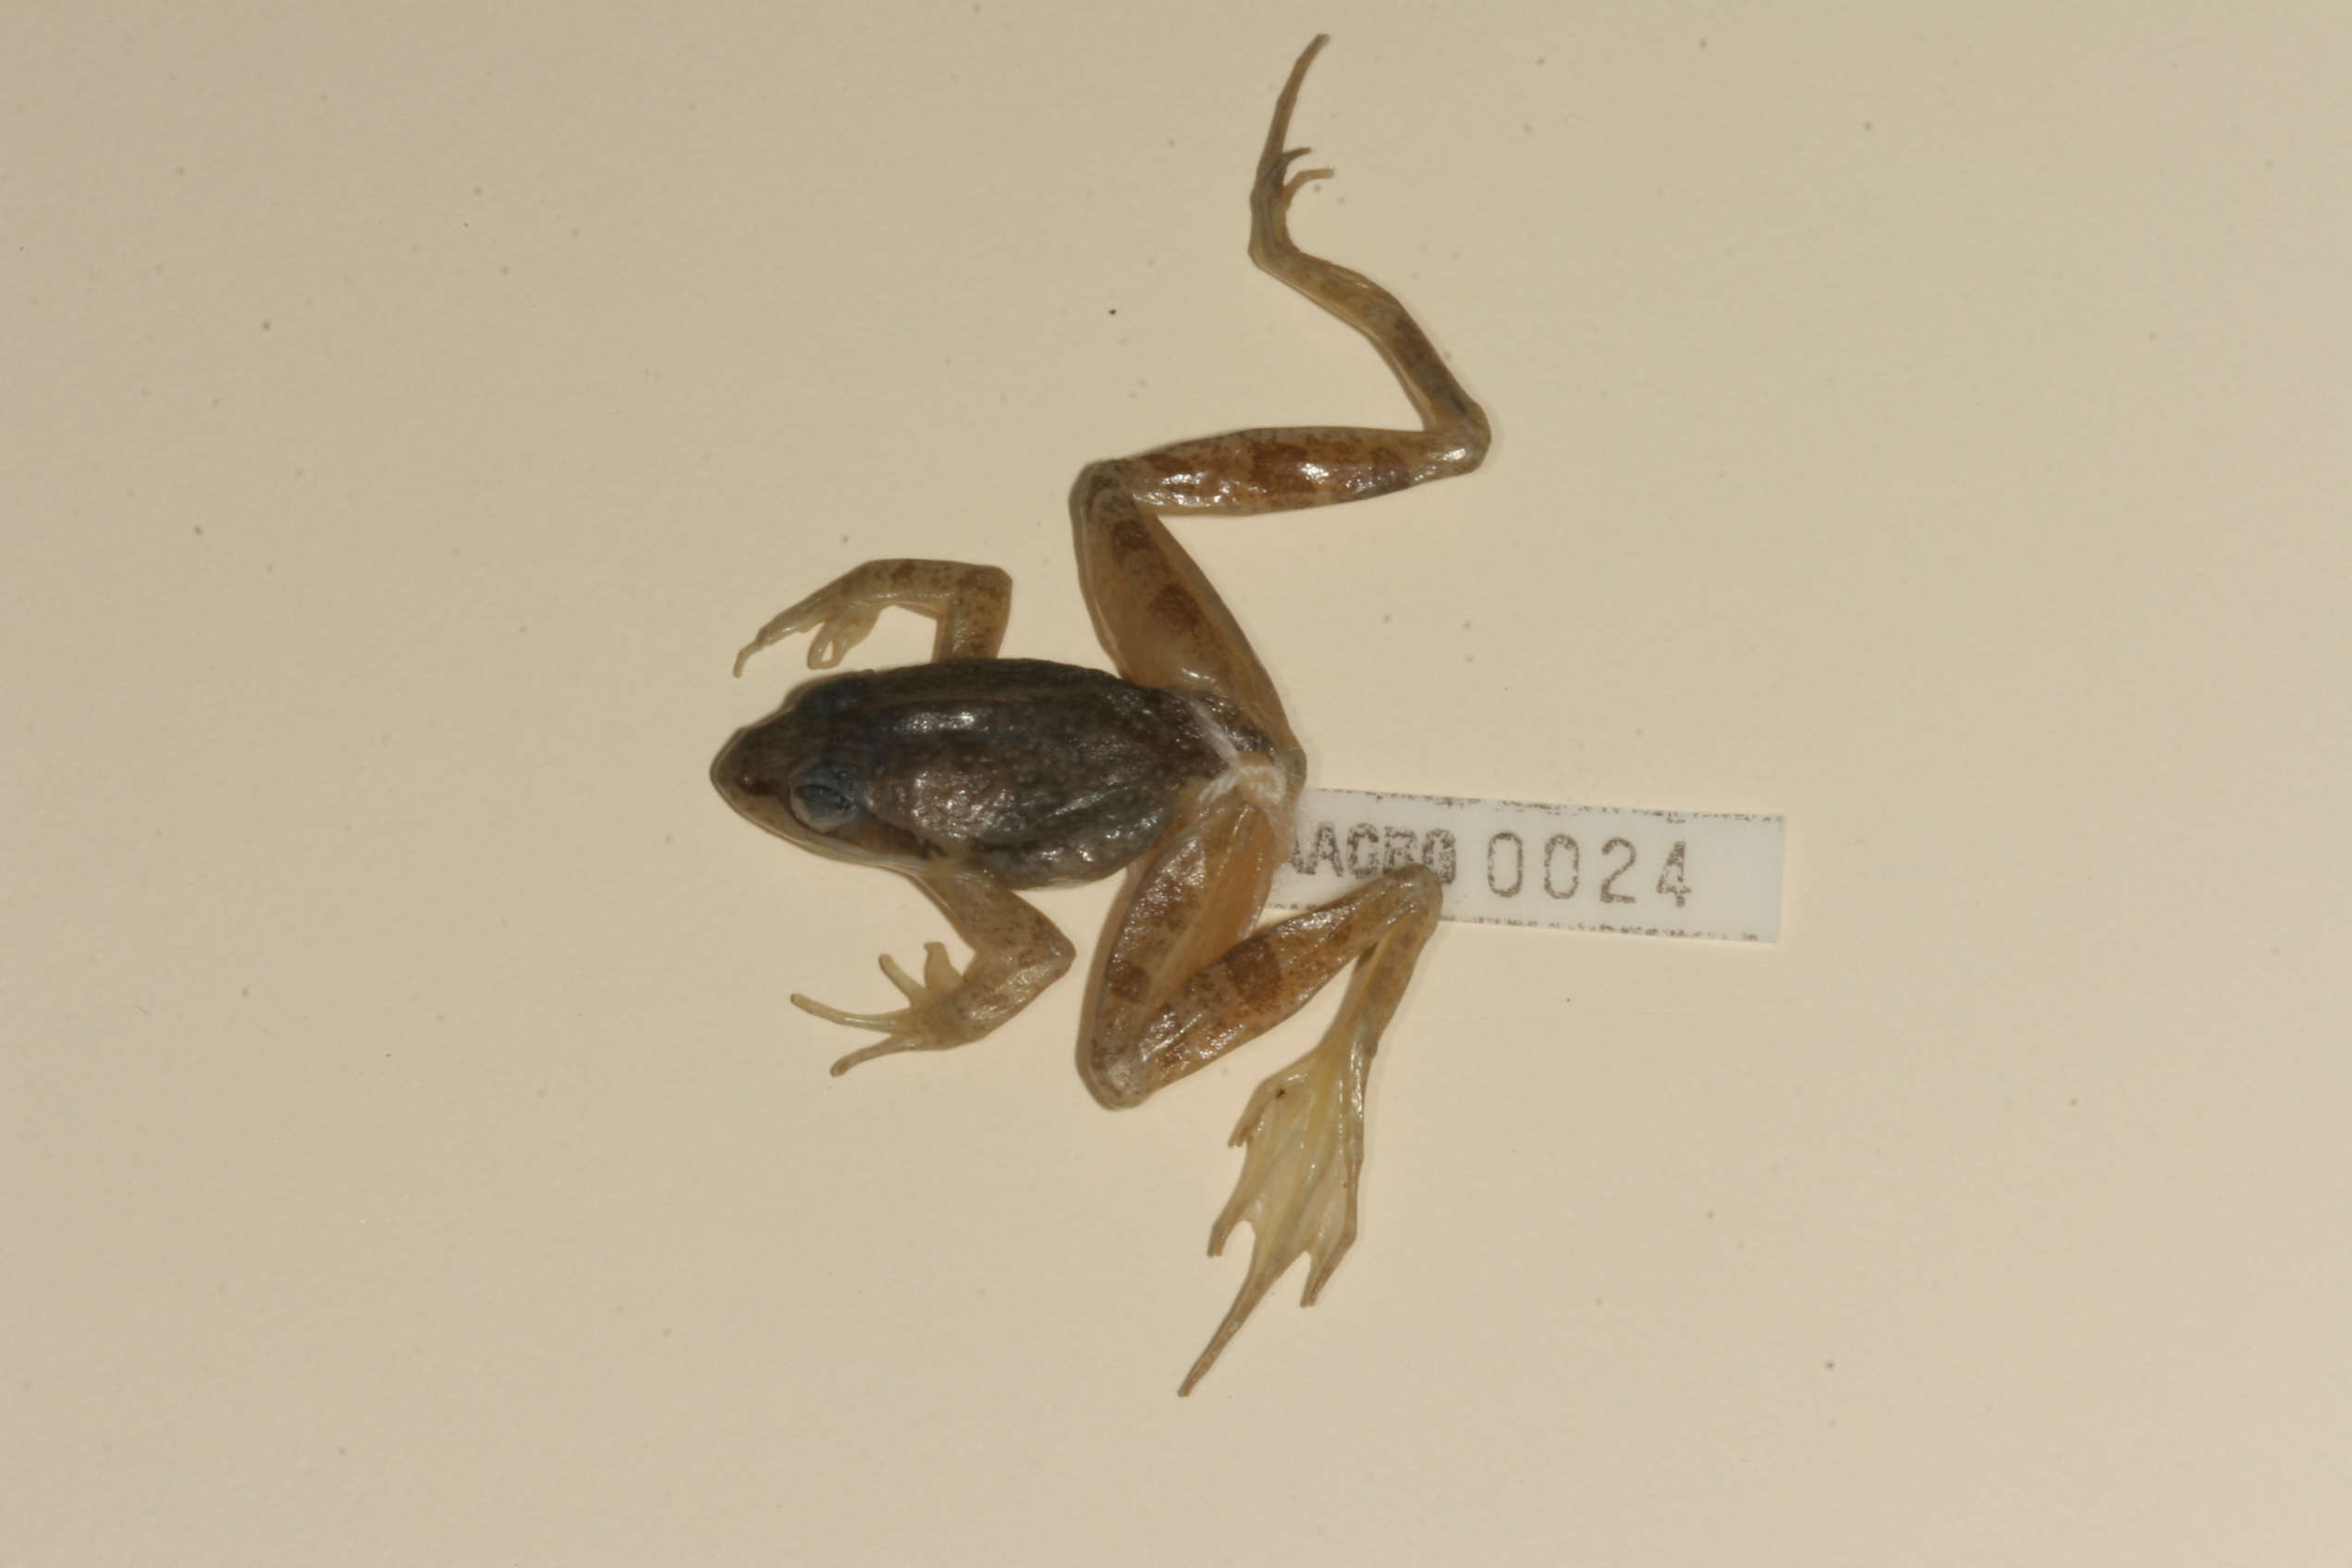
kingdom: Animalia
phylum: Chordata
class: Amphibia
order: Anura
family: Pyxicephalidae
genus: Strongylopus
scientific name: Strongylopus wageri
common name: Wager's stream frog
